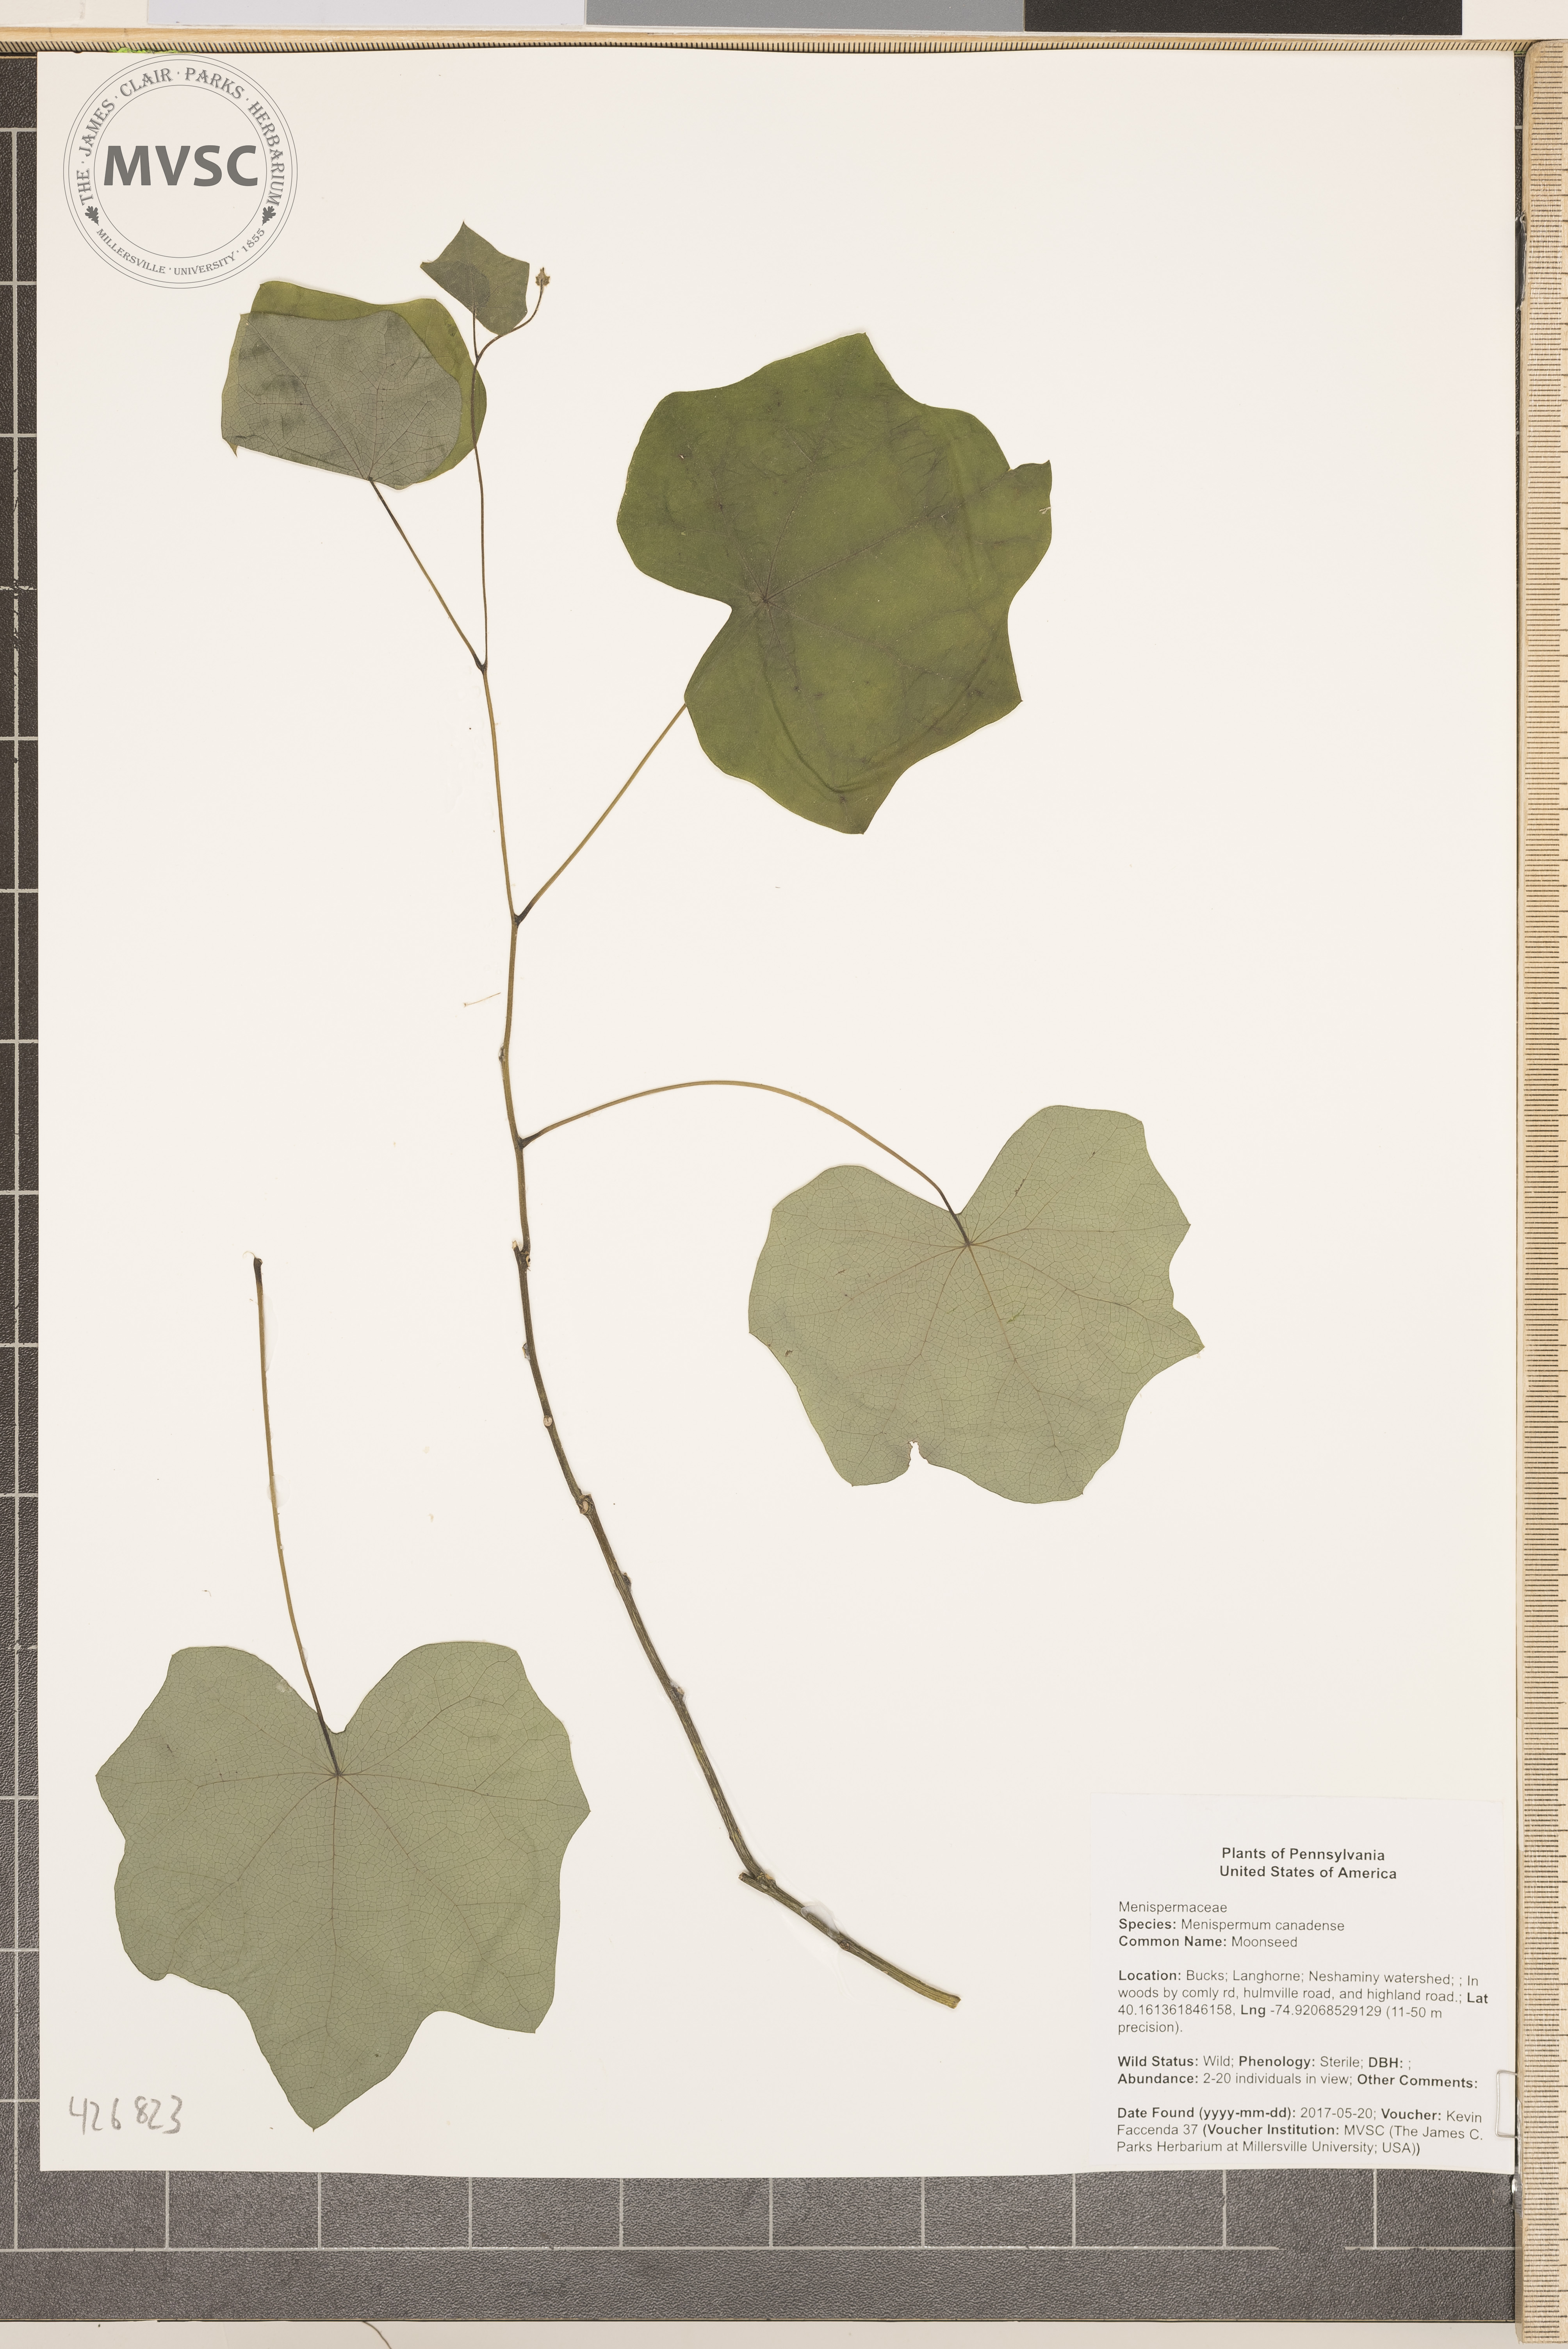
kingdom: Plantae
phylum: Tracheophyta
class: Magnoliopsida
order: Ranunculales
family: Menispermaceae
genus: Menispermum
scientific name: Menispermum canadense
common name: Moonseed
